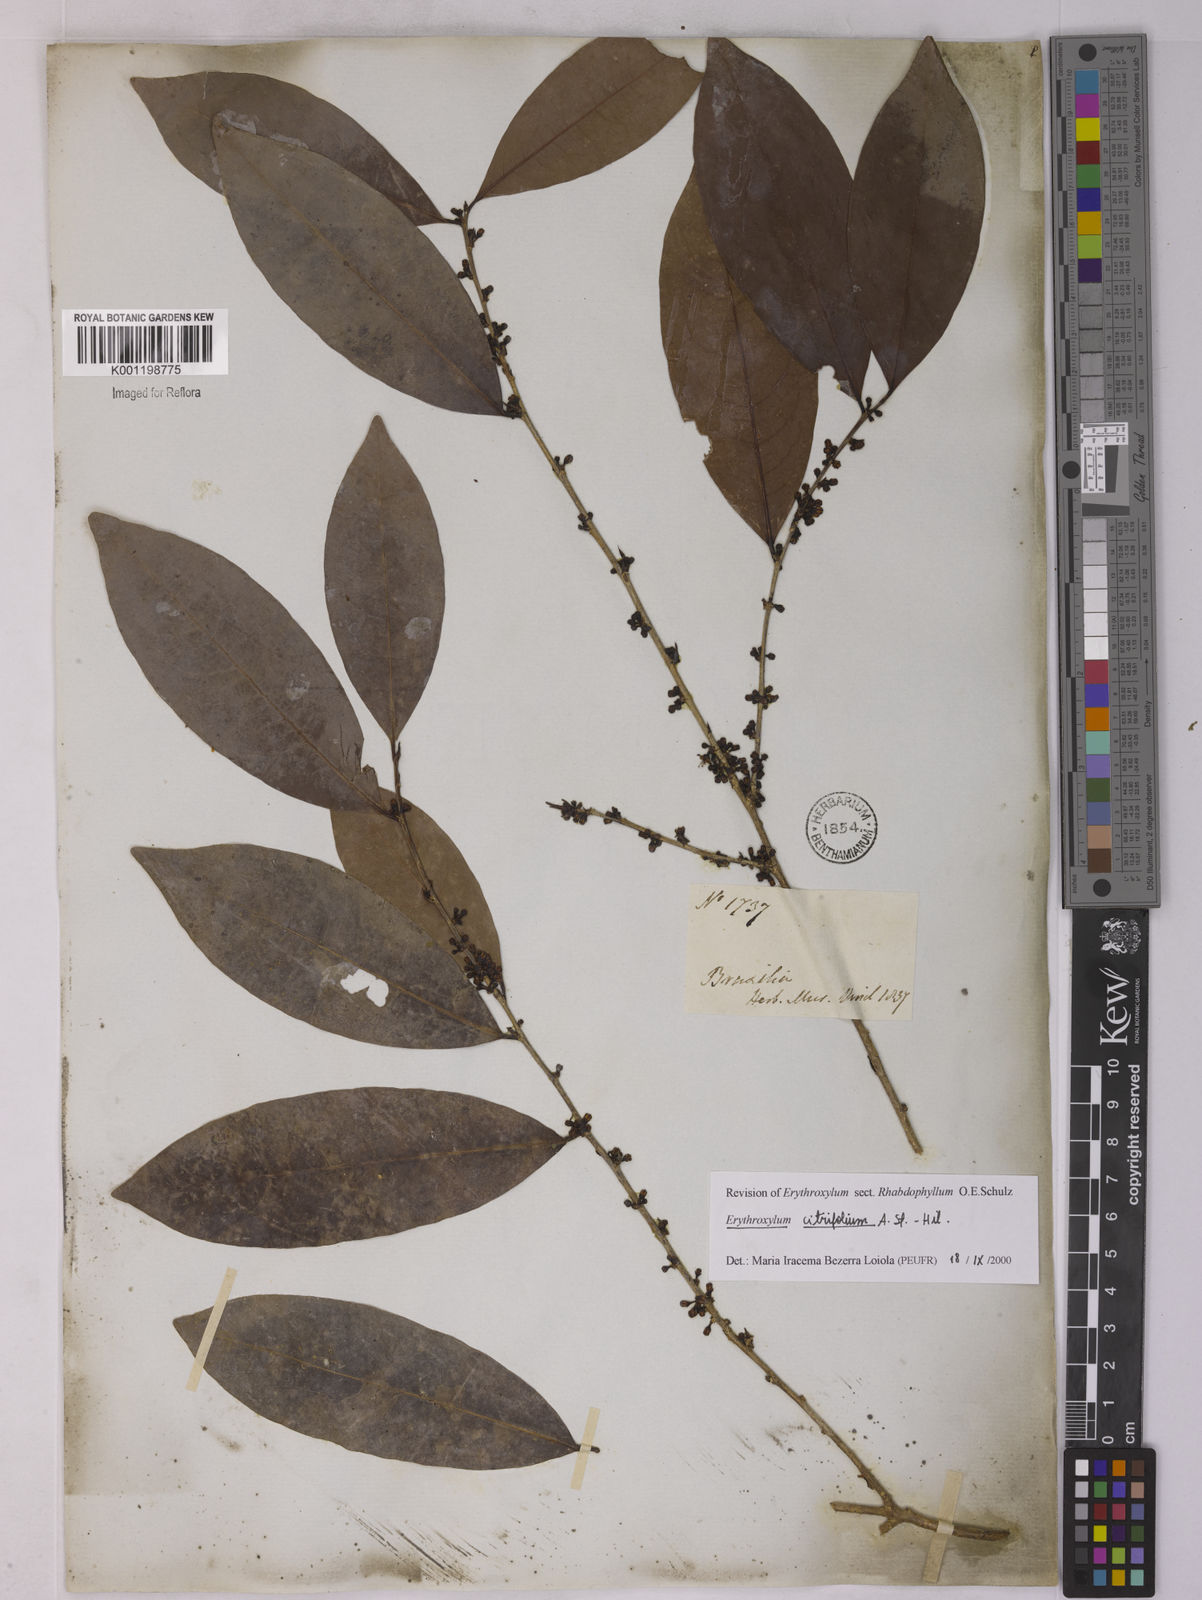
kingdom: Plantae
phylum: Tracheophyta
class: Magnoliopsida
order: Malpighiales
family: Erythroxylaceae
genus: Erythroxylum
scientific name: Erythroxylum citrifolium
